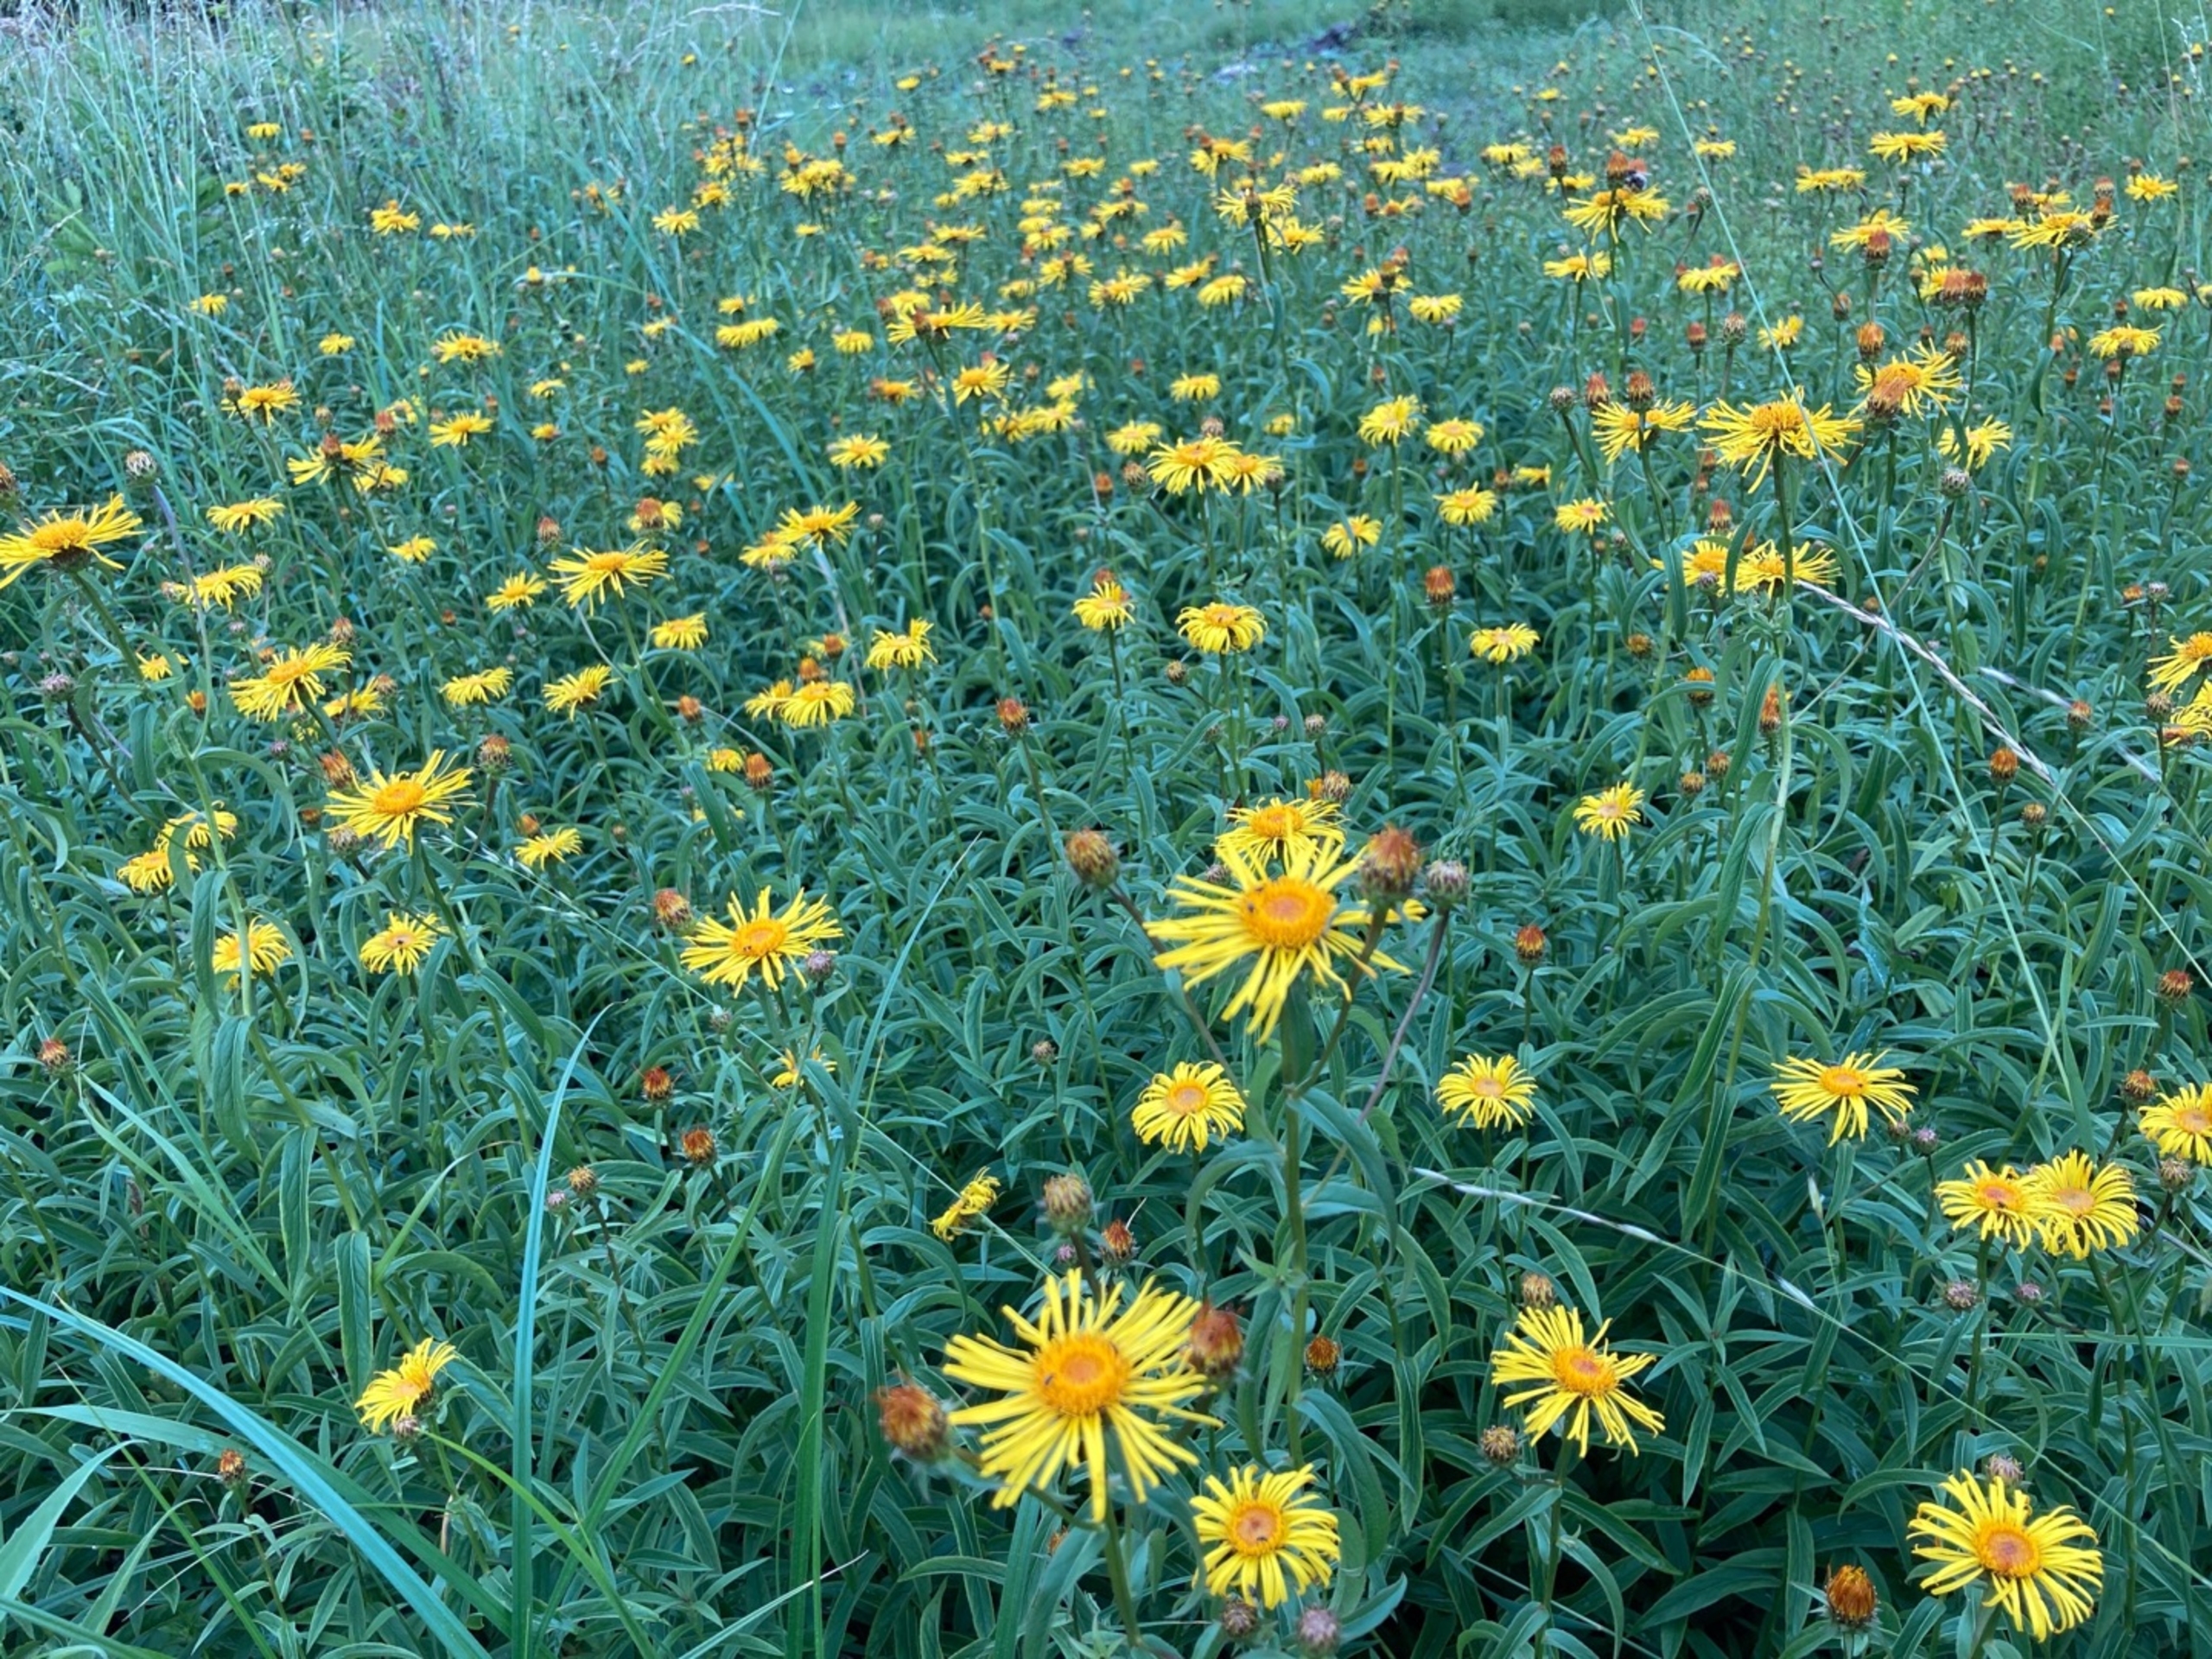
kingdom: Plantae
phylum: Tracheophyta
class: Magnoliopsida
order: Asterales
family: Asteraceae
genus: Pentanema
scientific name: Pentanema salicinum
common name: Pile-alant
